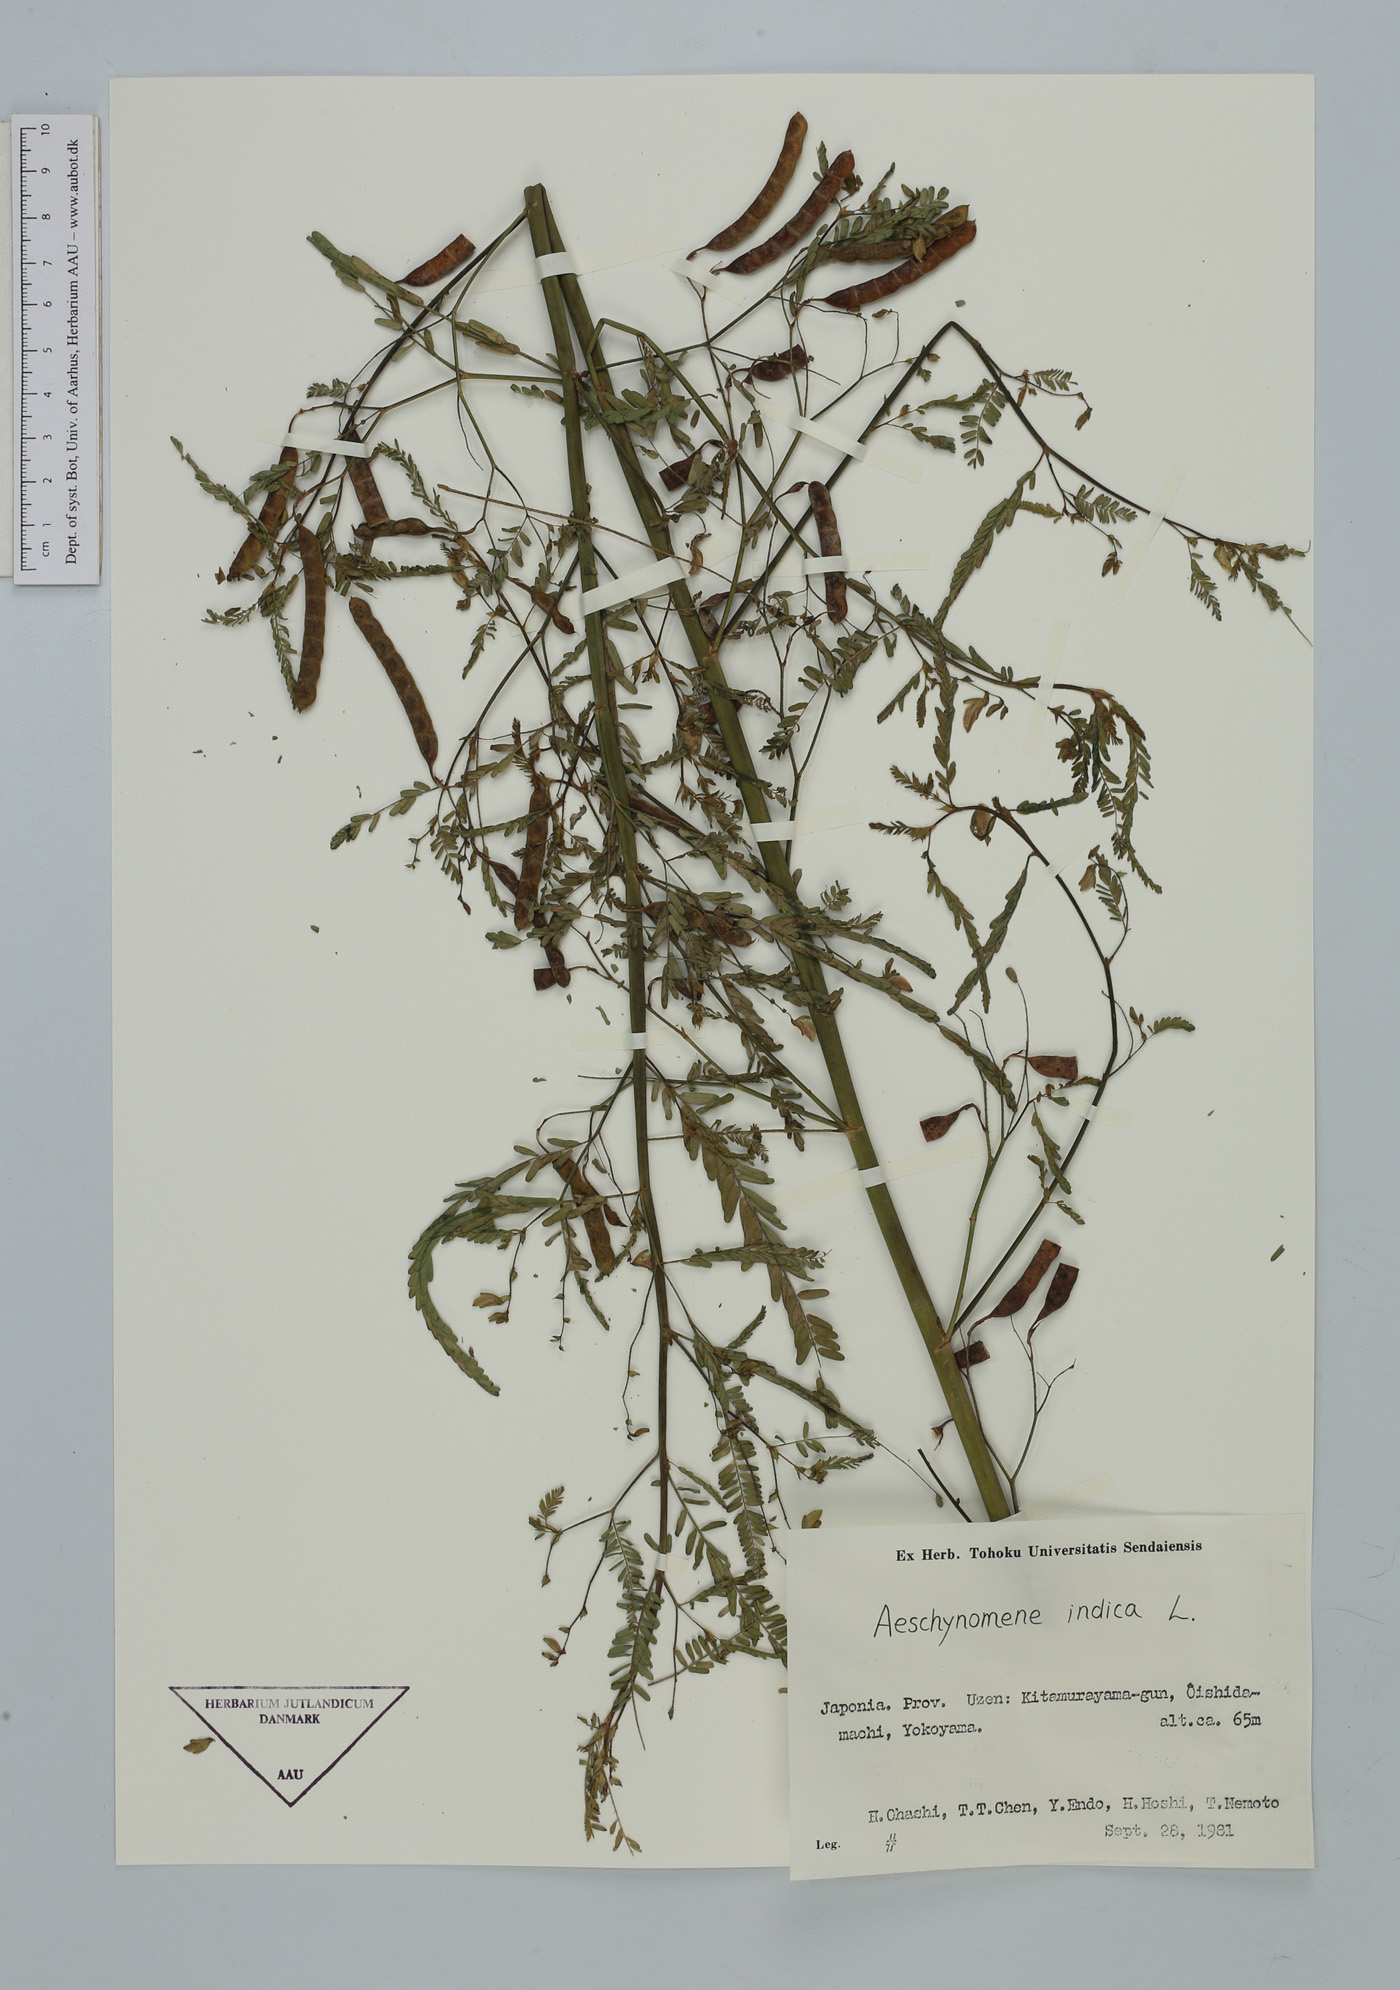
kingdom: Plantae
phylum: Tracheophyta
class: Magnoliopsida
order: Fabales
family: Fabaceae
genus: Aeschynomene
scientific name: Aeschynomene indica
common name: Indian jointvetch
